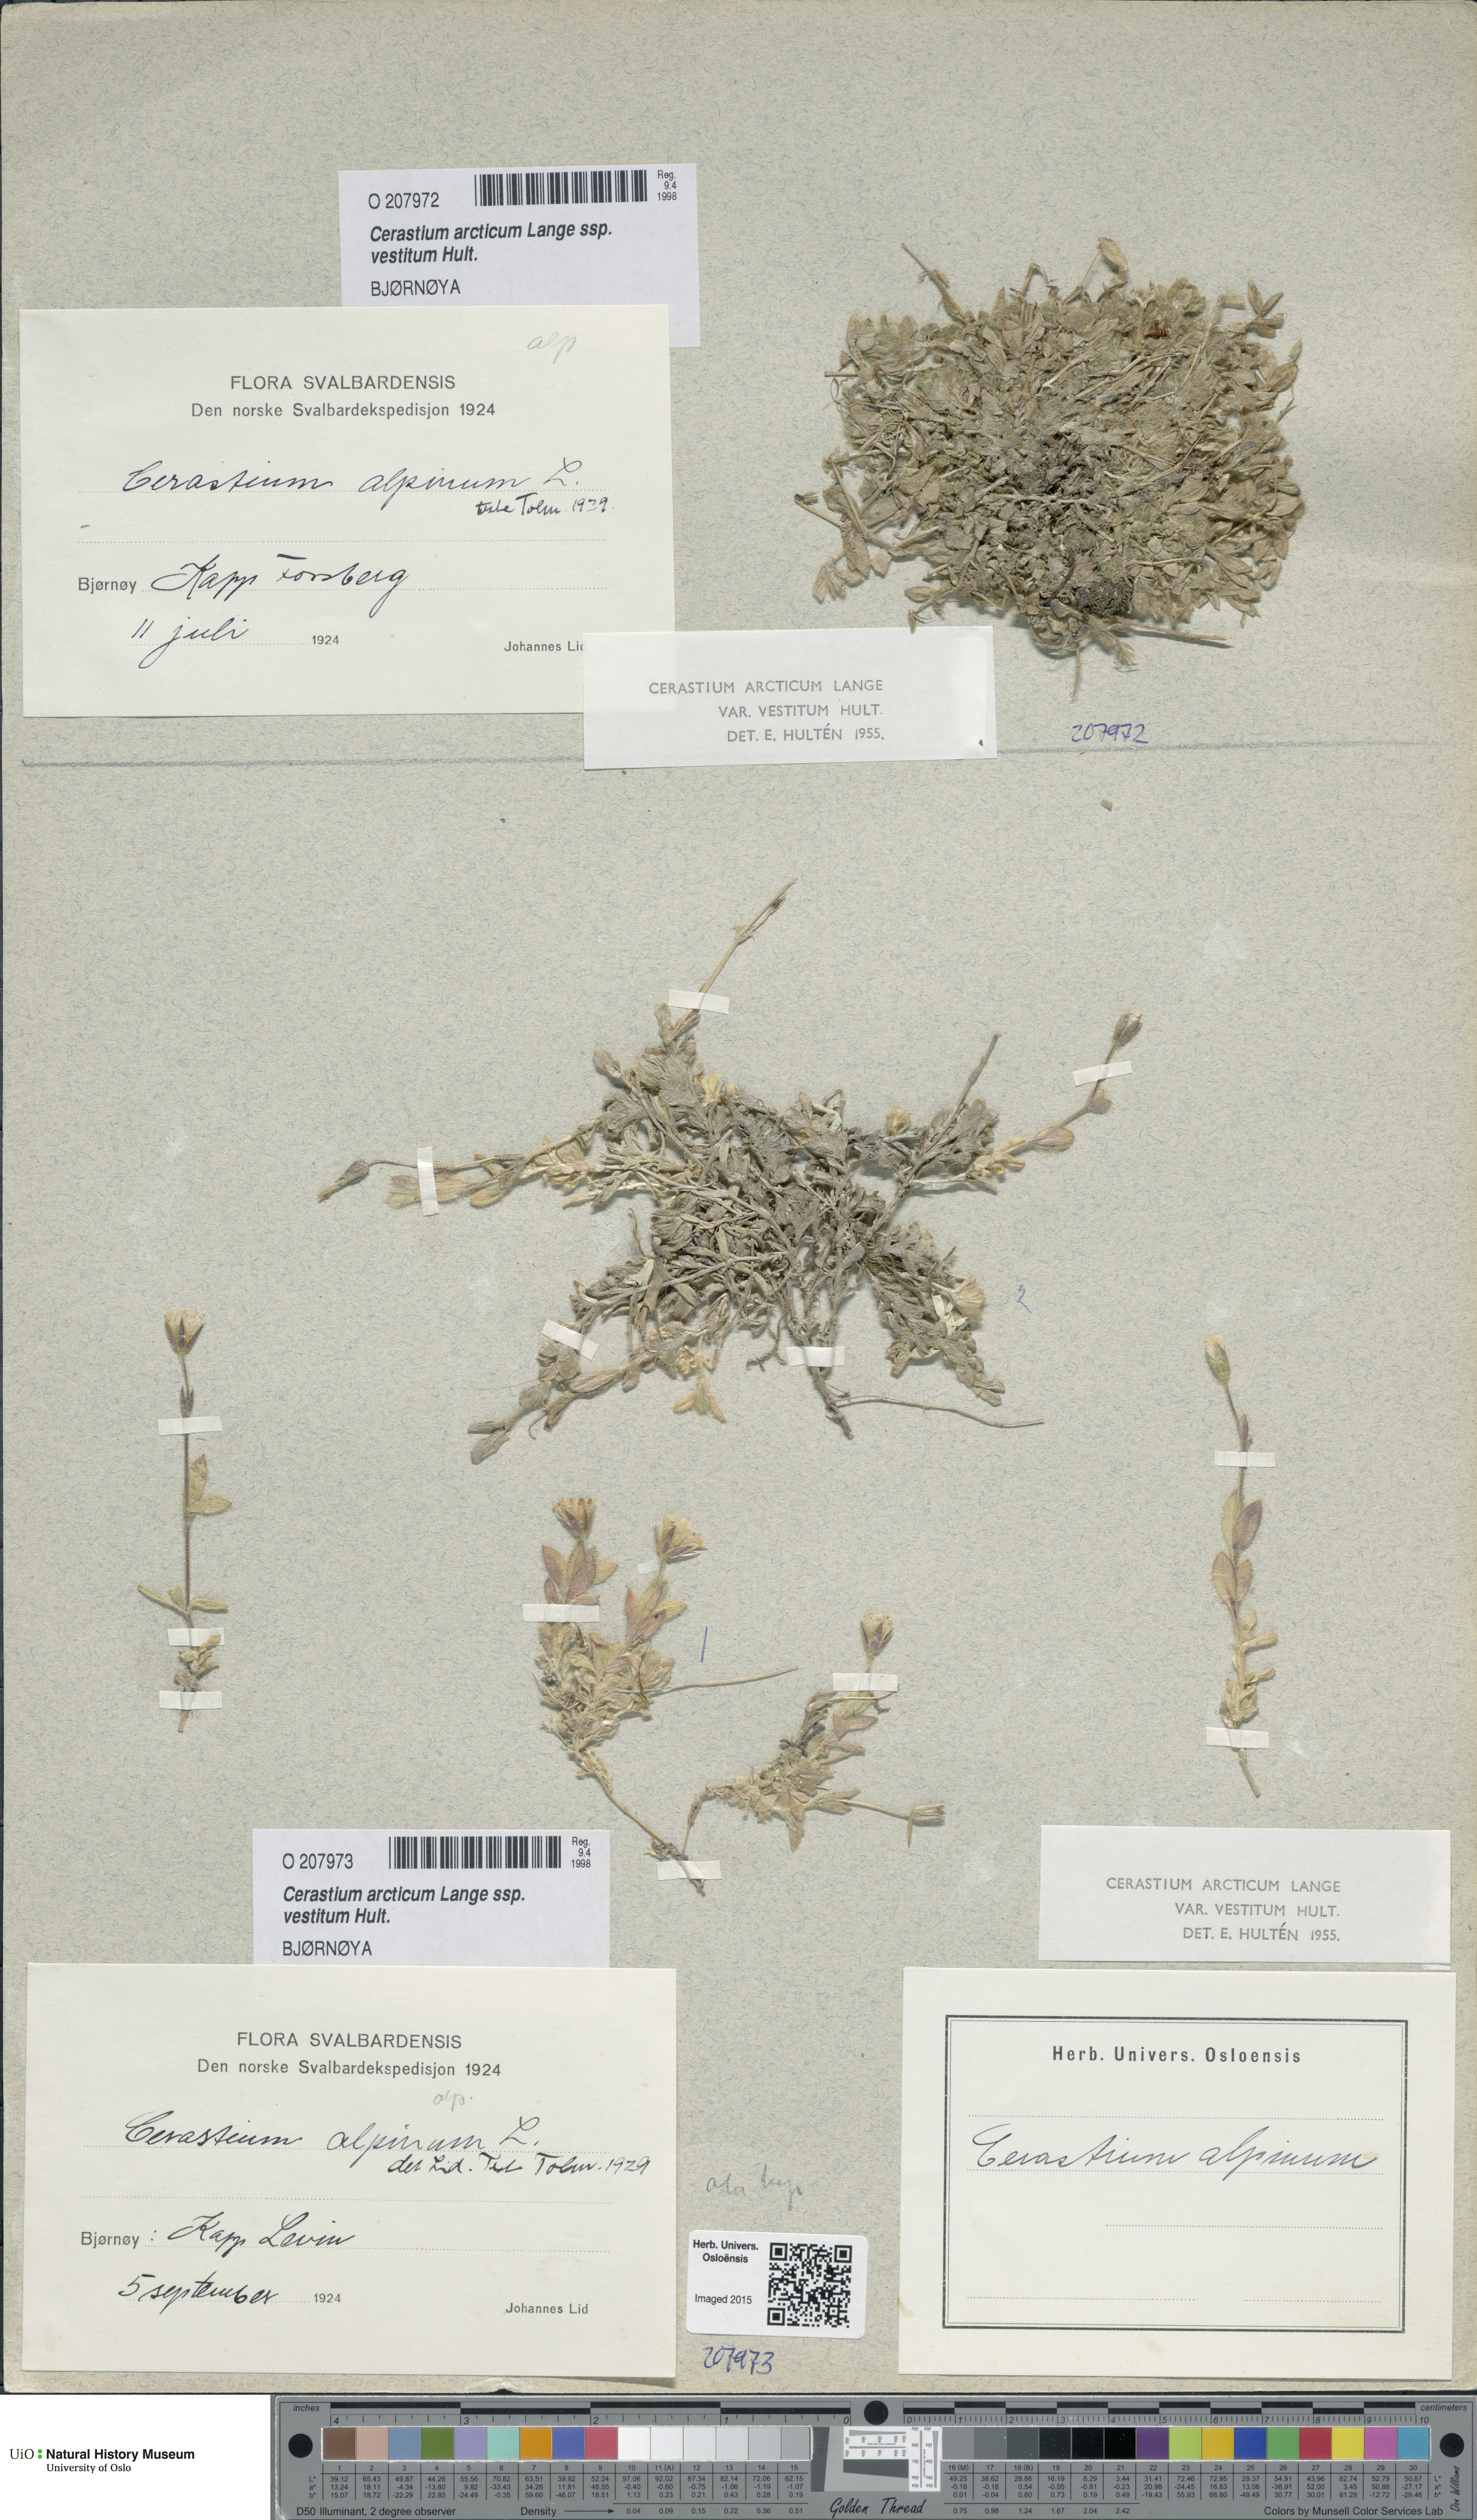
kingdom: Plantae
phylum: Tracheophyta
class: Magnoliopsida
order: Caryophyllales
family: Caryophyllaceae
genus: Cerastium
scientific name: Cerastium arcticum
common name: Arctic mouse-ear
